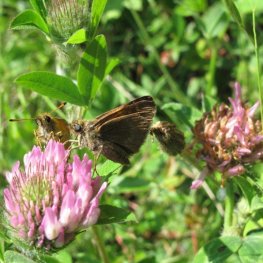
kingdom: Animalia
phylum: Arthropoda
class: Insecta
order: Lepidoptera
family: Hesperiidae
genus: Polites
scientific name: Polites themistocles
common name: Tawny-edged Skipper
